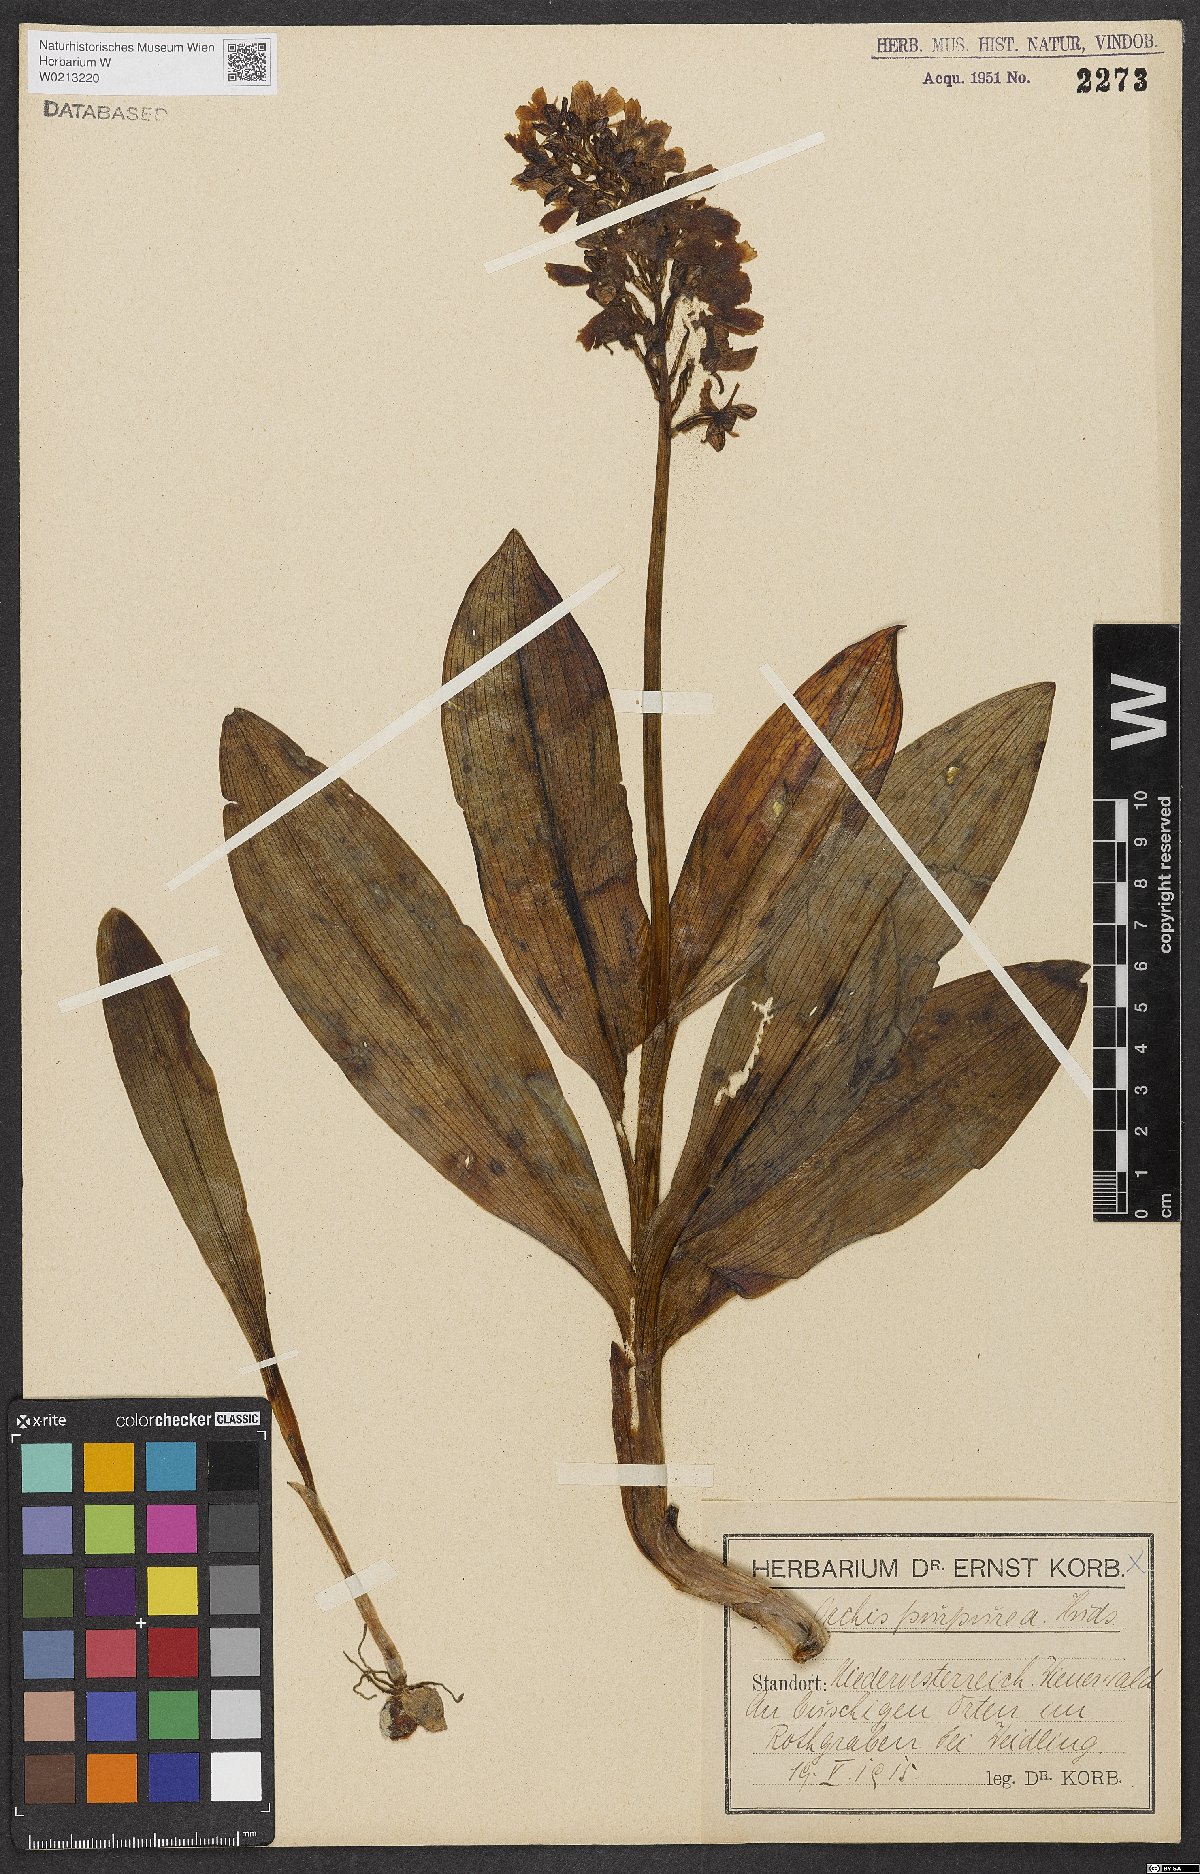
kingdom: Plantae
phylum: Tracheophyta
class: Liliopsida
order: Asparagales
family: Orchidaceae
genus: Orchis
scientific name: Orchis purpurea
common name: Lady orchid
